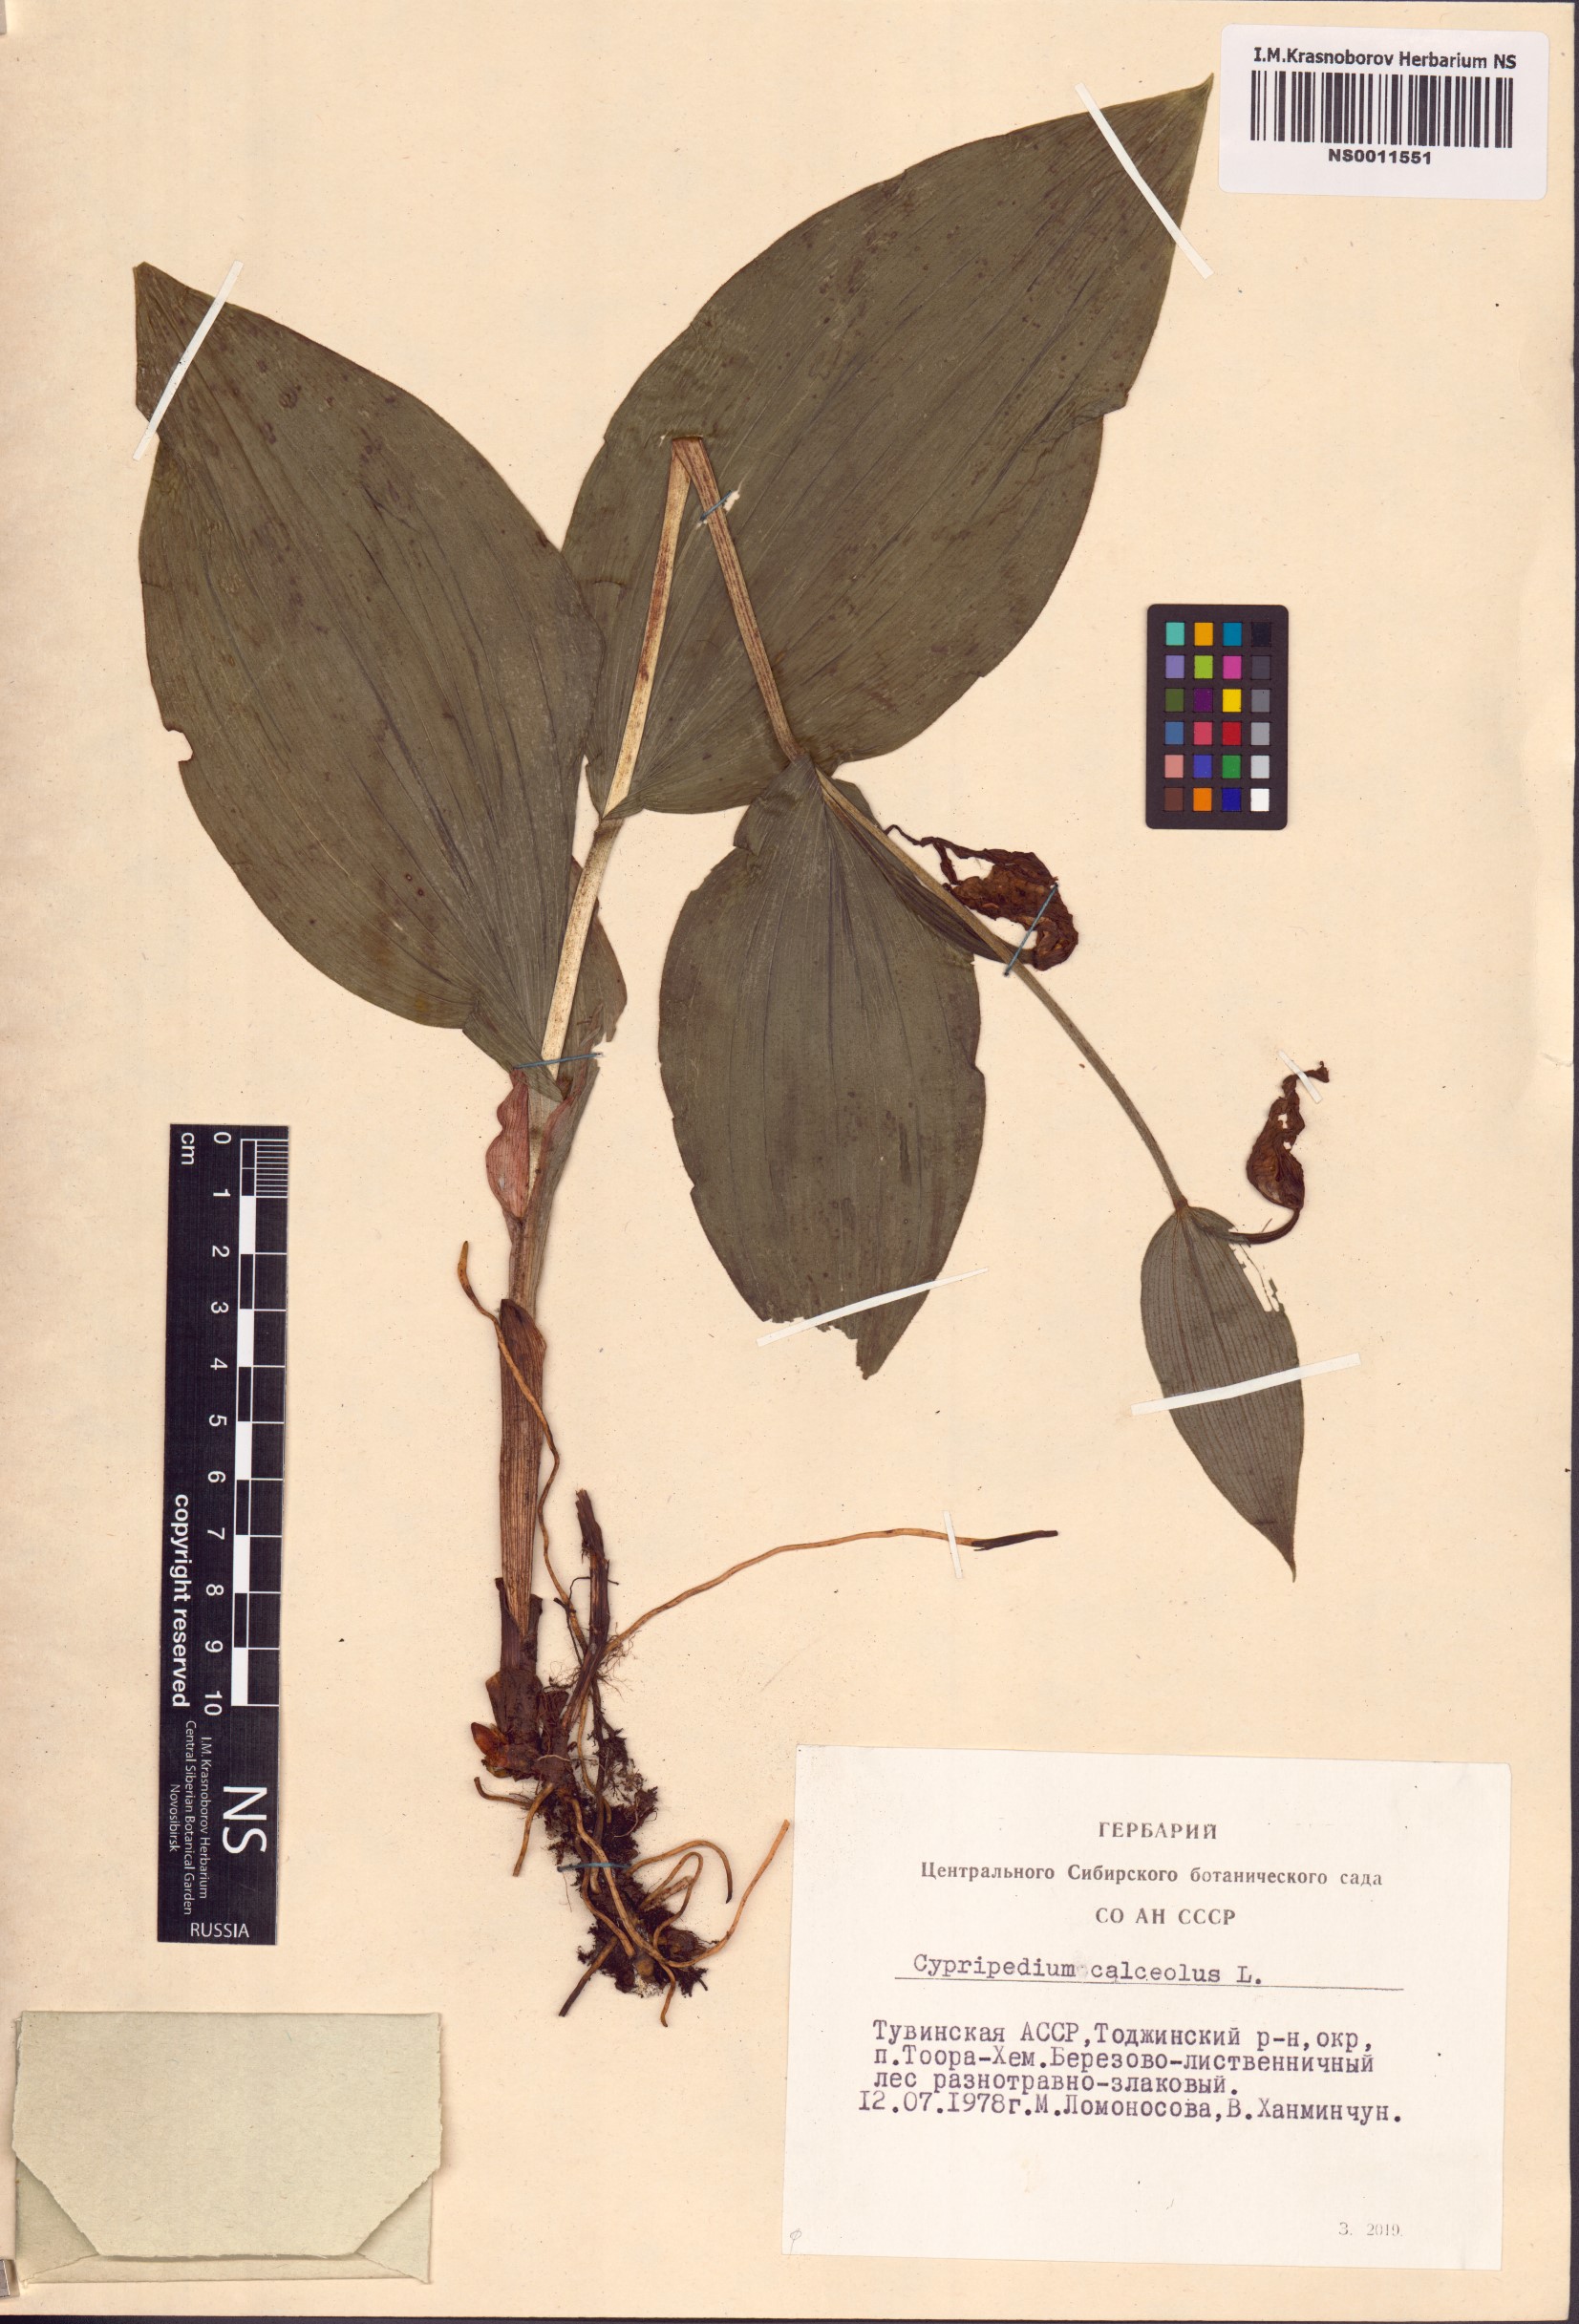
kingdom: Plantae
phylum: Tracheophyta
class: Liliopsida
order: Asparagales
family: Orchidaceae
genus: Cypripedium
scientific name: Cypripedium calceolus
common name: Lady's-slipper
